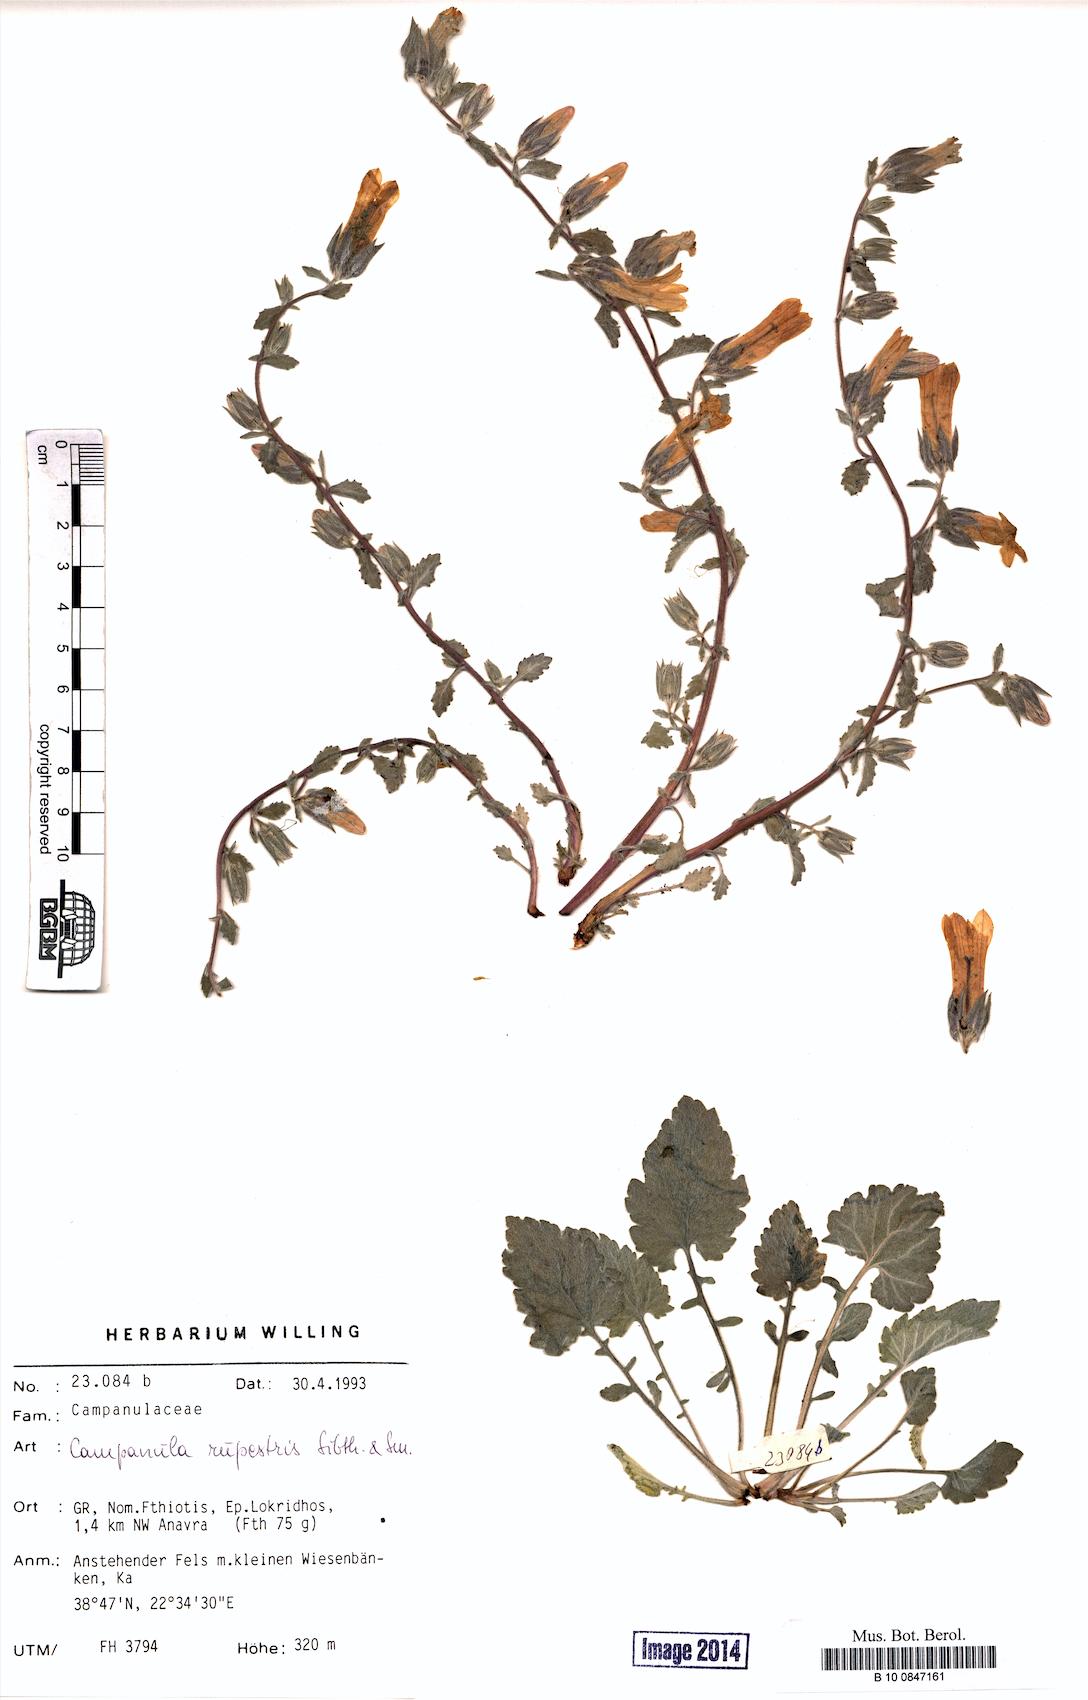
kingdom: Plantae
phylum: Tracheophyta
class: Magnoliopsida
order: Asterales
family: Campanulaceae
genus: Campanula
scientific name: Campanula rupestris
